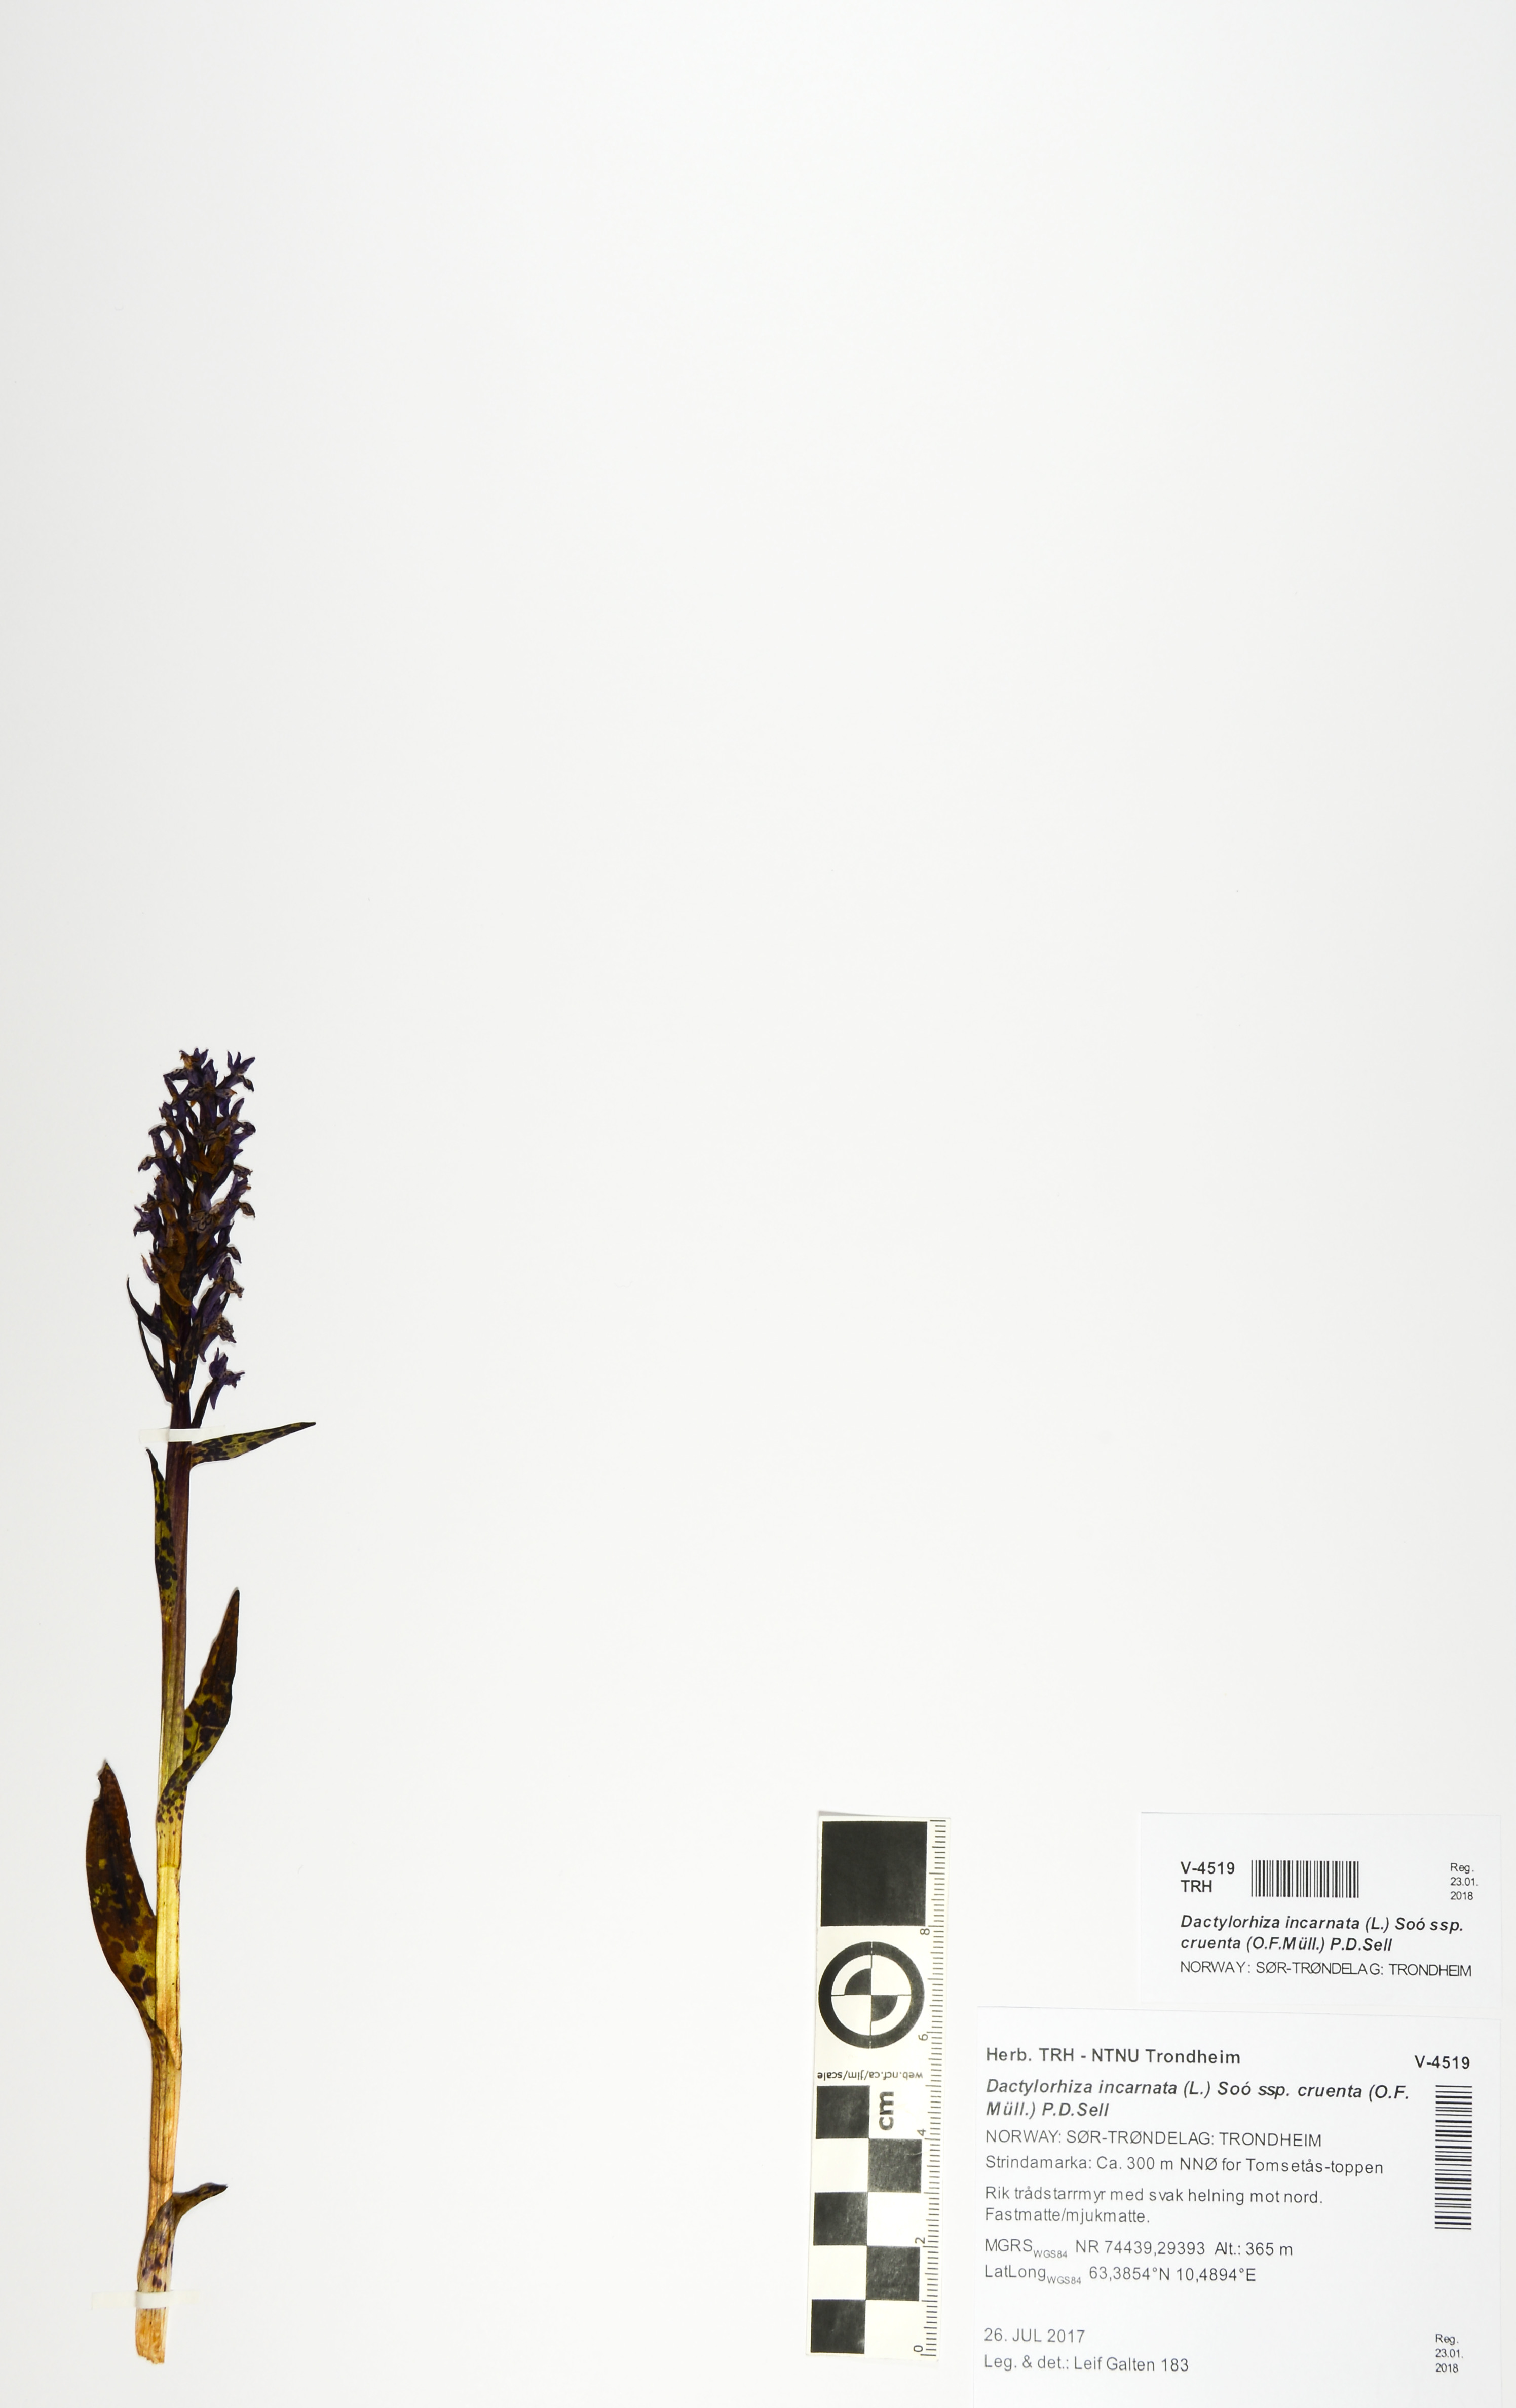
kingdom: Plantae
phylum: Tracheophyta
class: Liliopsida
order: Asparagales
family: Orchidaceae
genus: Dactylorhiza
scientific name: Dactylorhiza incarnata
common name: Early marsh-orchid
